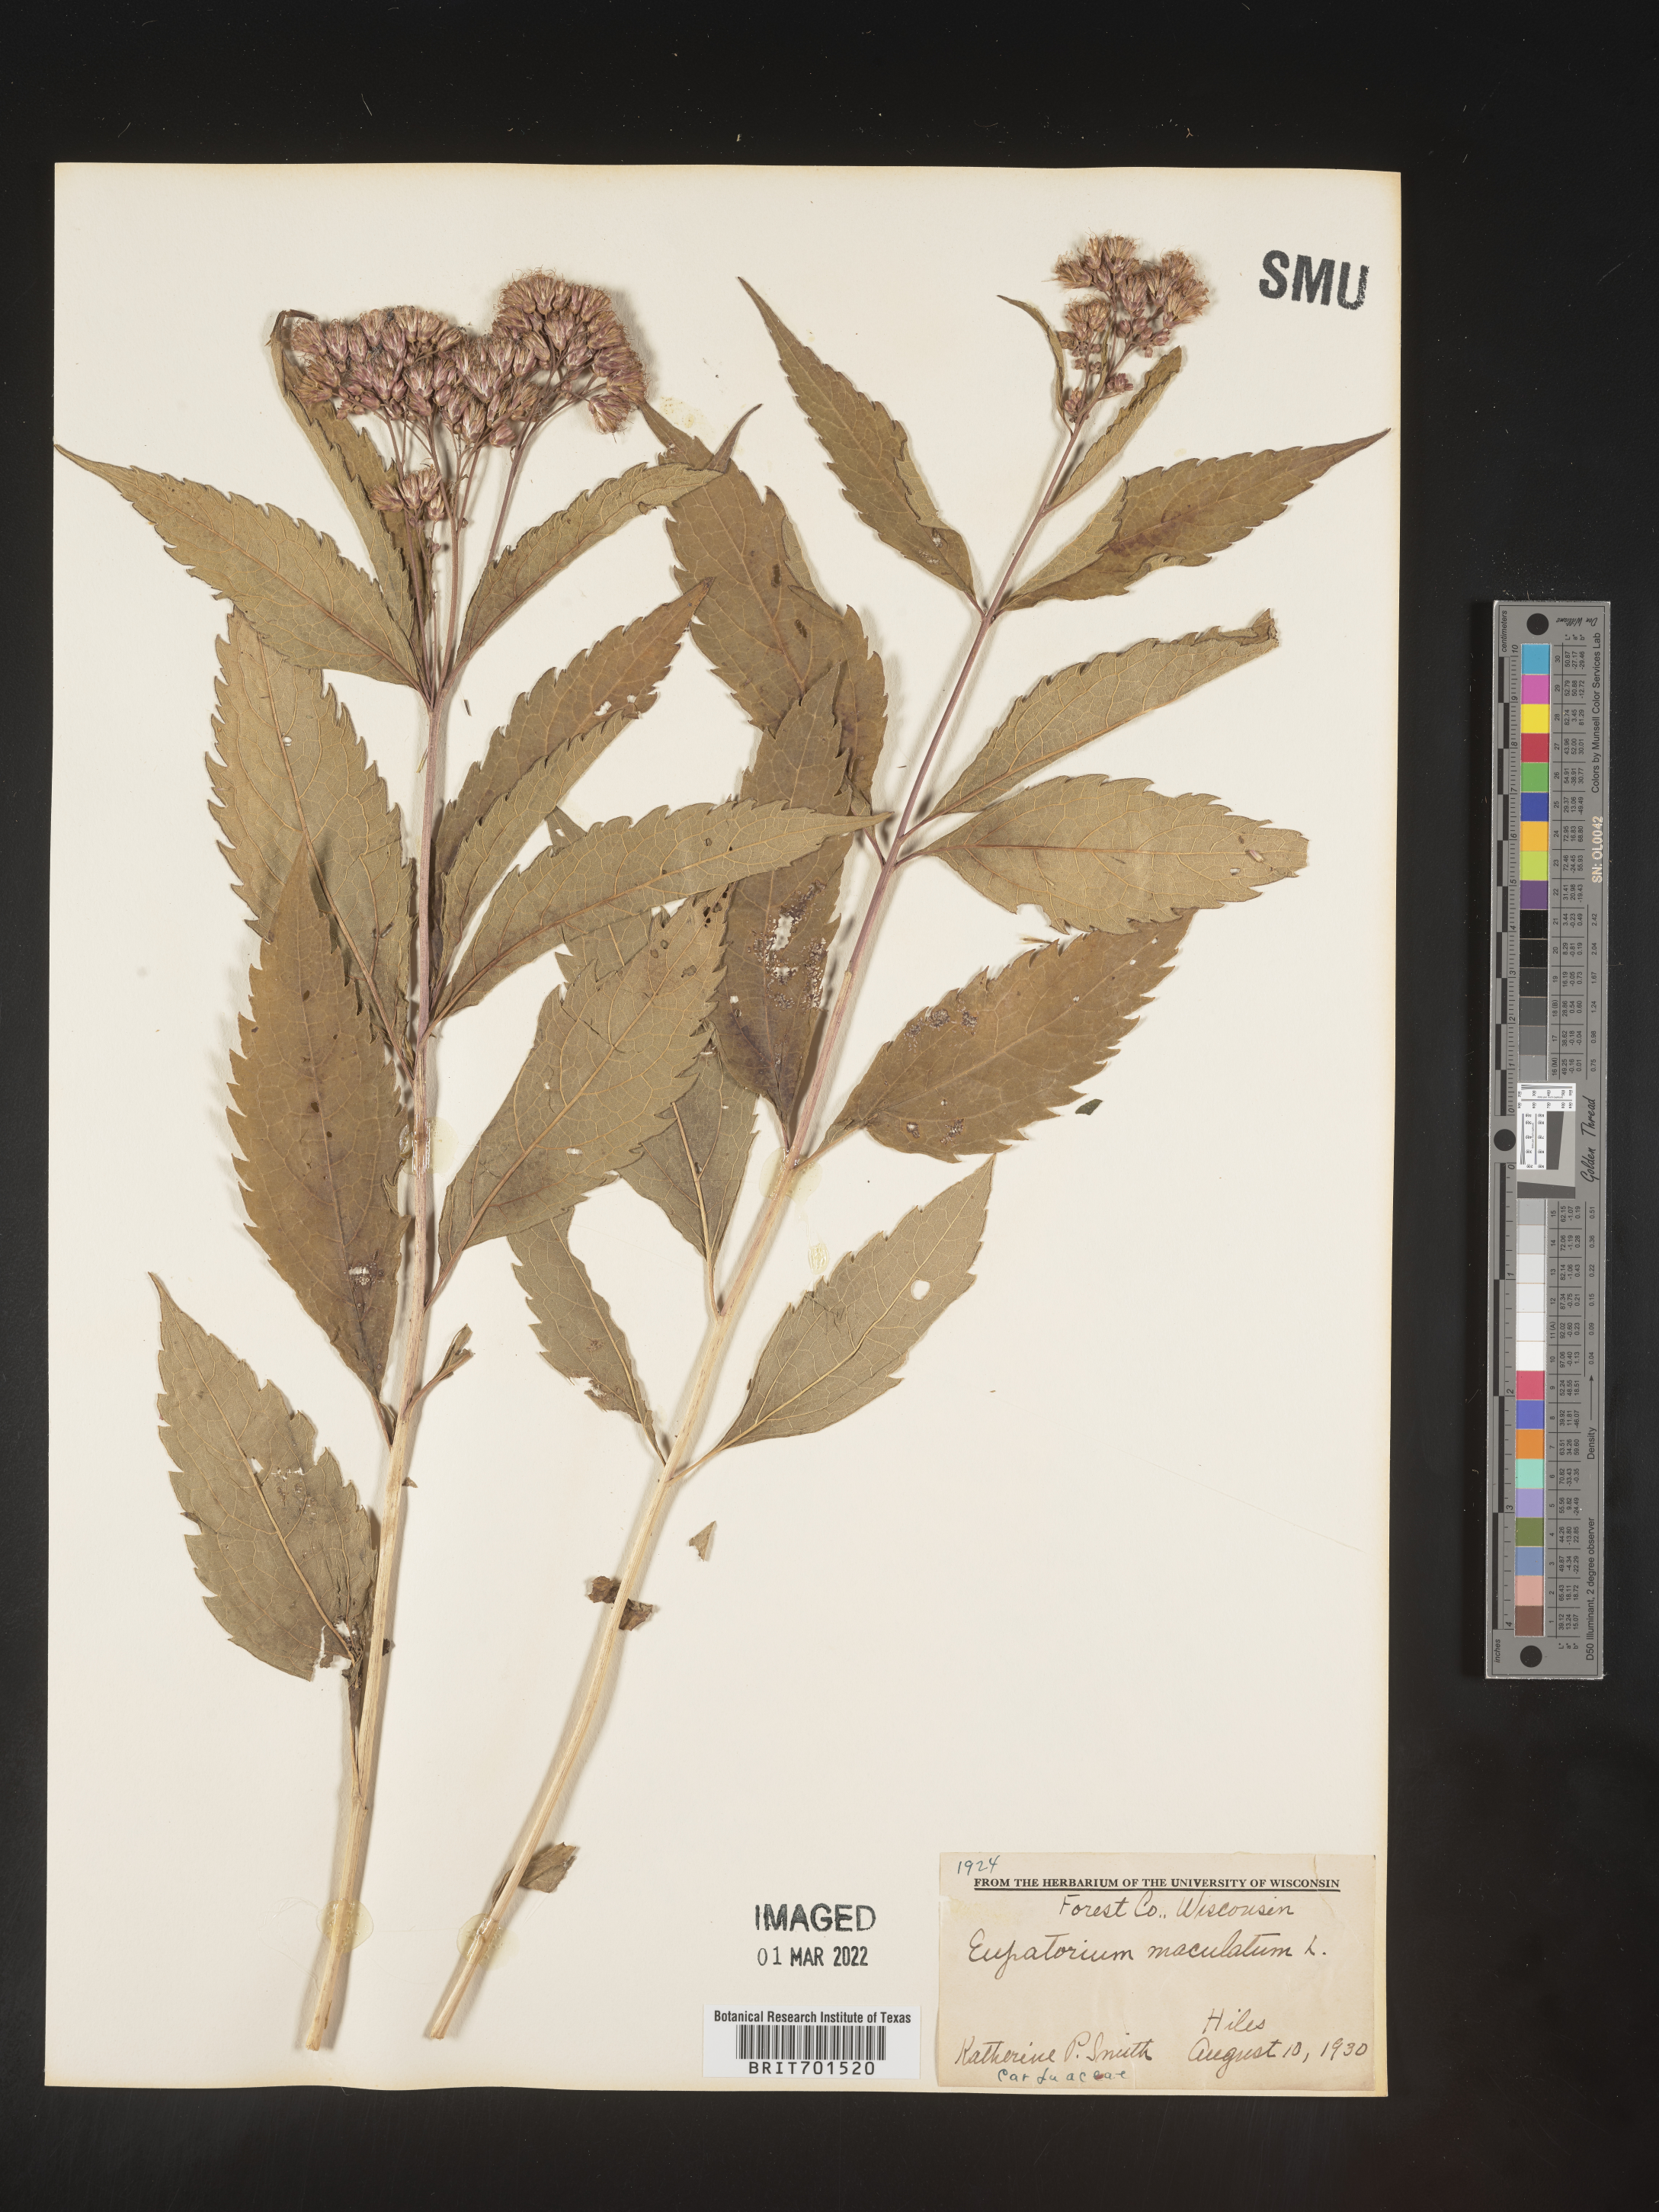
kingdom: Plantae
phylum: Tracheophyta
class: Magnoliopsida
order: Asterales
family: Asteraceae
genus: Eutrochium
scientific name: Eutrochium maculatum
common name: Spotted joe pye weed
